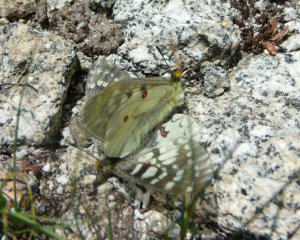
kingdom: Animalia
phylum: Arthropoda
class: Insecta
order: Lepidoptera
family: Papilionidae
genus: Parnassius
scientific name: Parnassius clodius
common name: Clodius Parnassian
